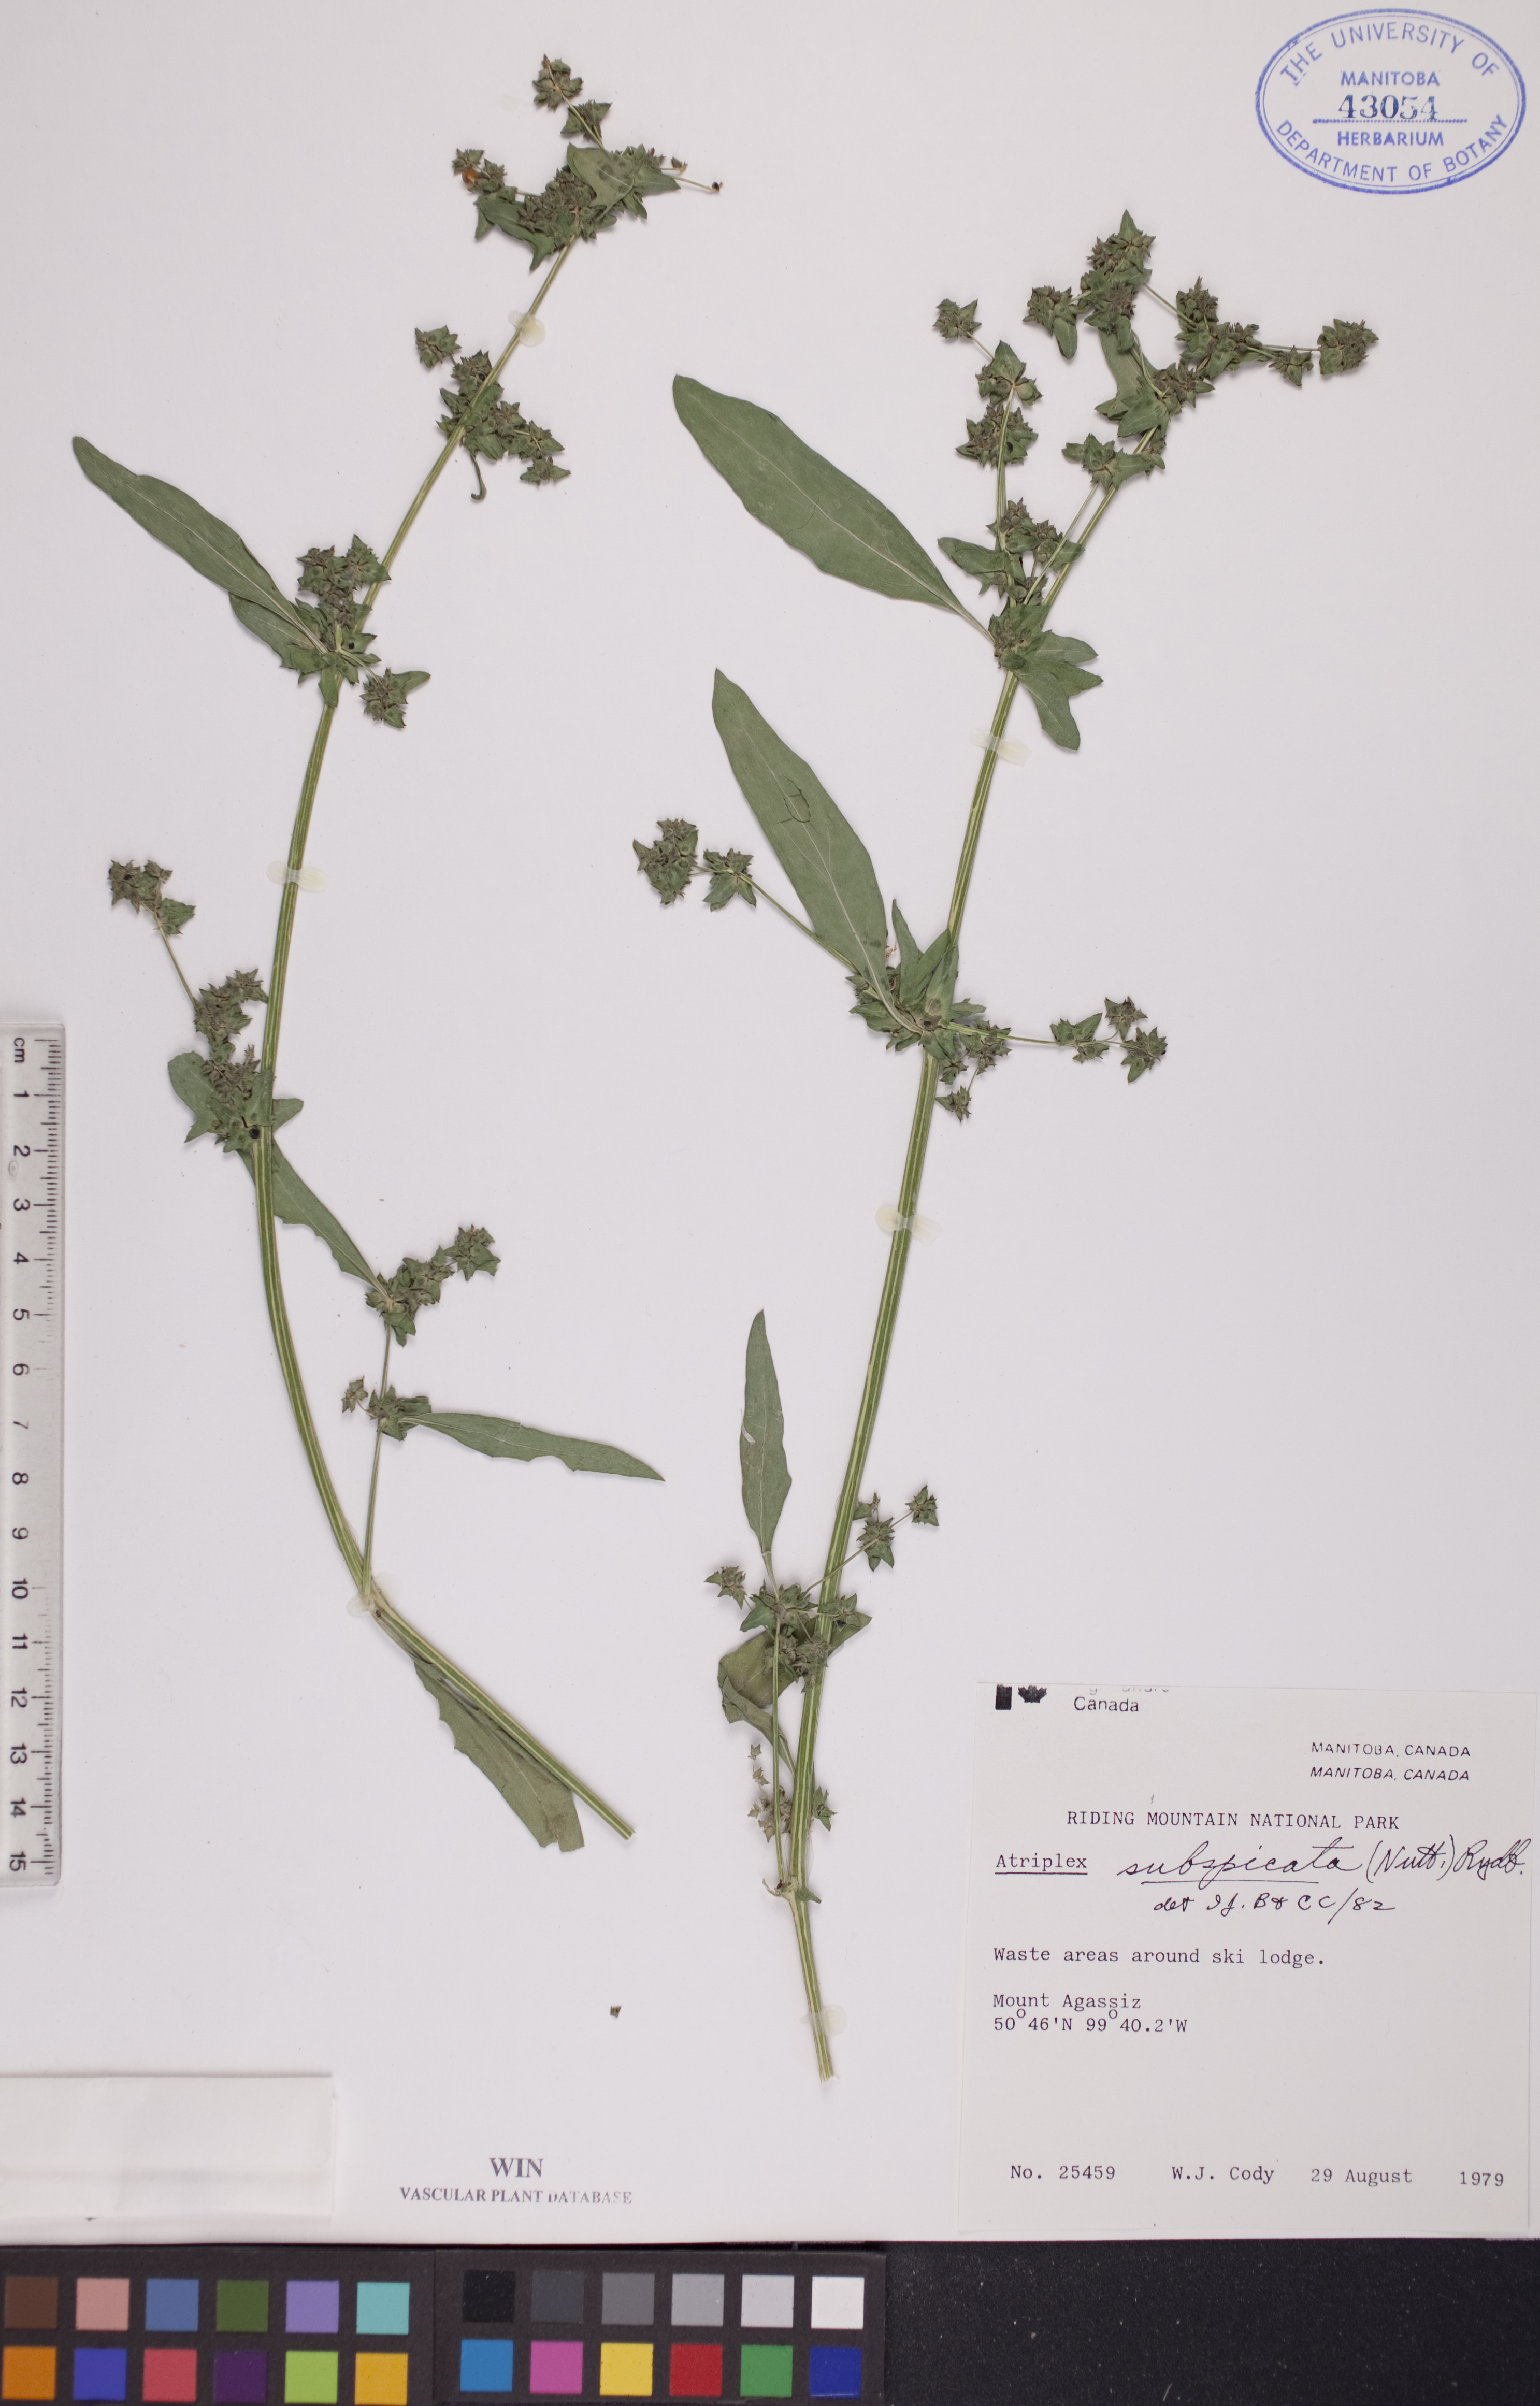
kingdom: Plantae
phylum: Tracheophyta
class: Magnoliopsida
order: Caryophyllales
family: Amaranthaceae
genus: Atriplex
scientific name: Atriplex dioica
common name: Saline atriplex
